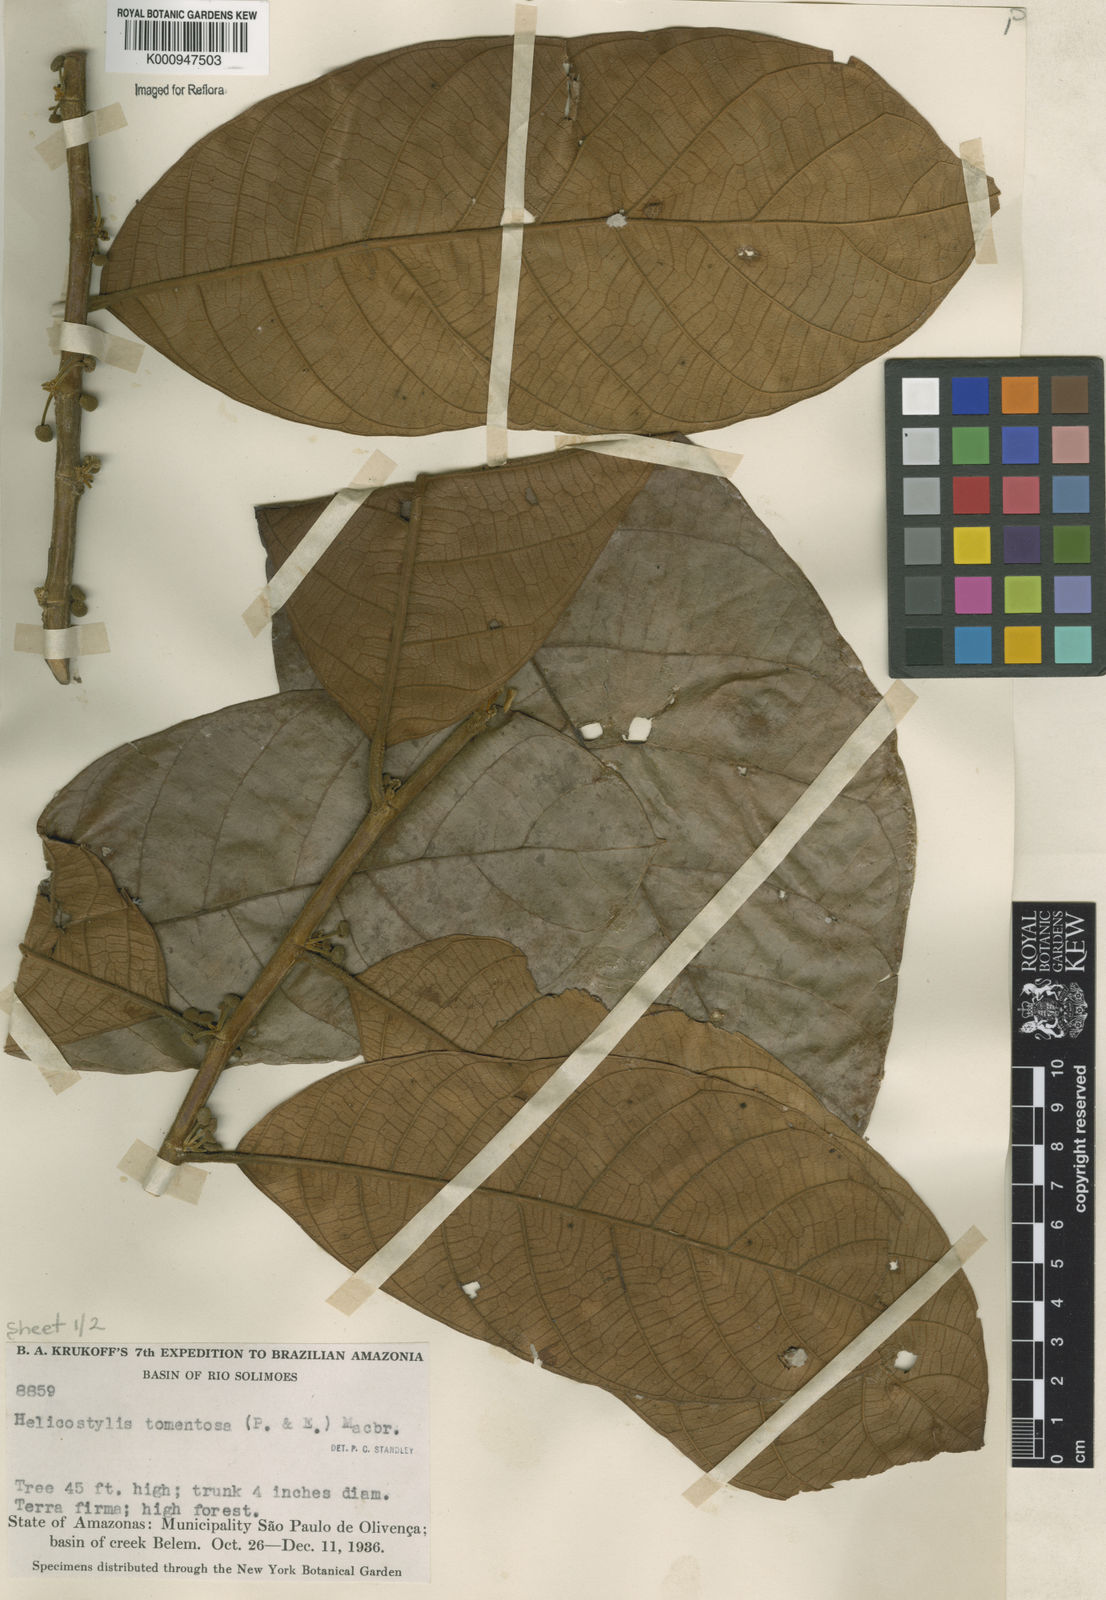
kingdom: Plantae
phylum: Tracheophyta
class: Magnoliopsida
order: Rosales
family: Moraceae
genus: Helicostylis
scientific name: Helicostylis
